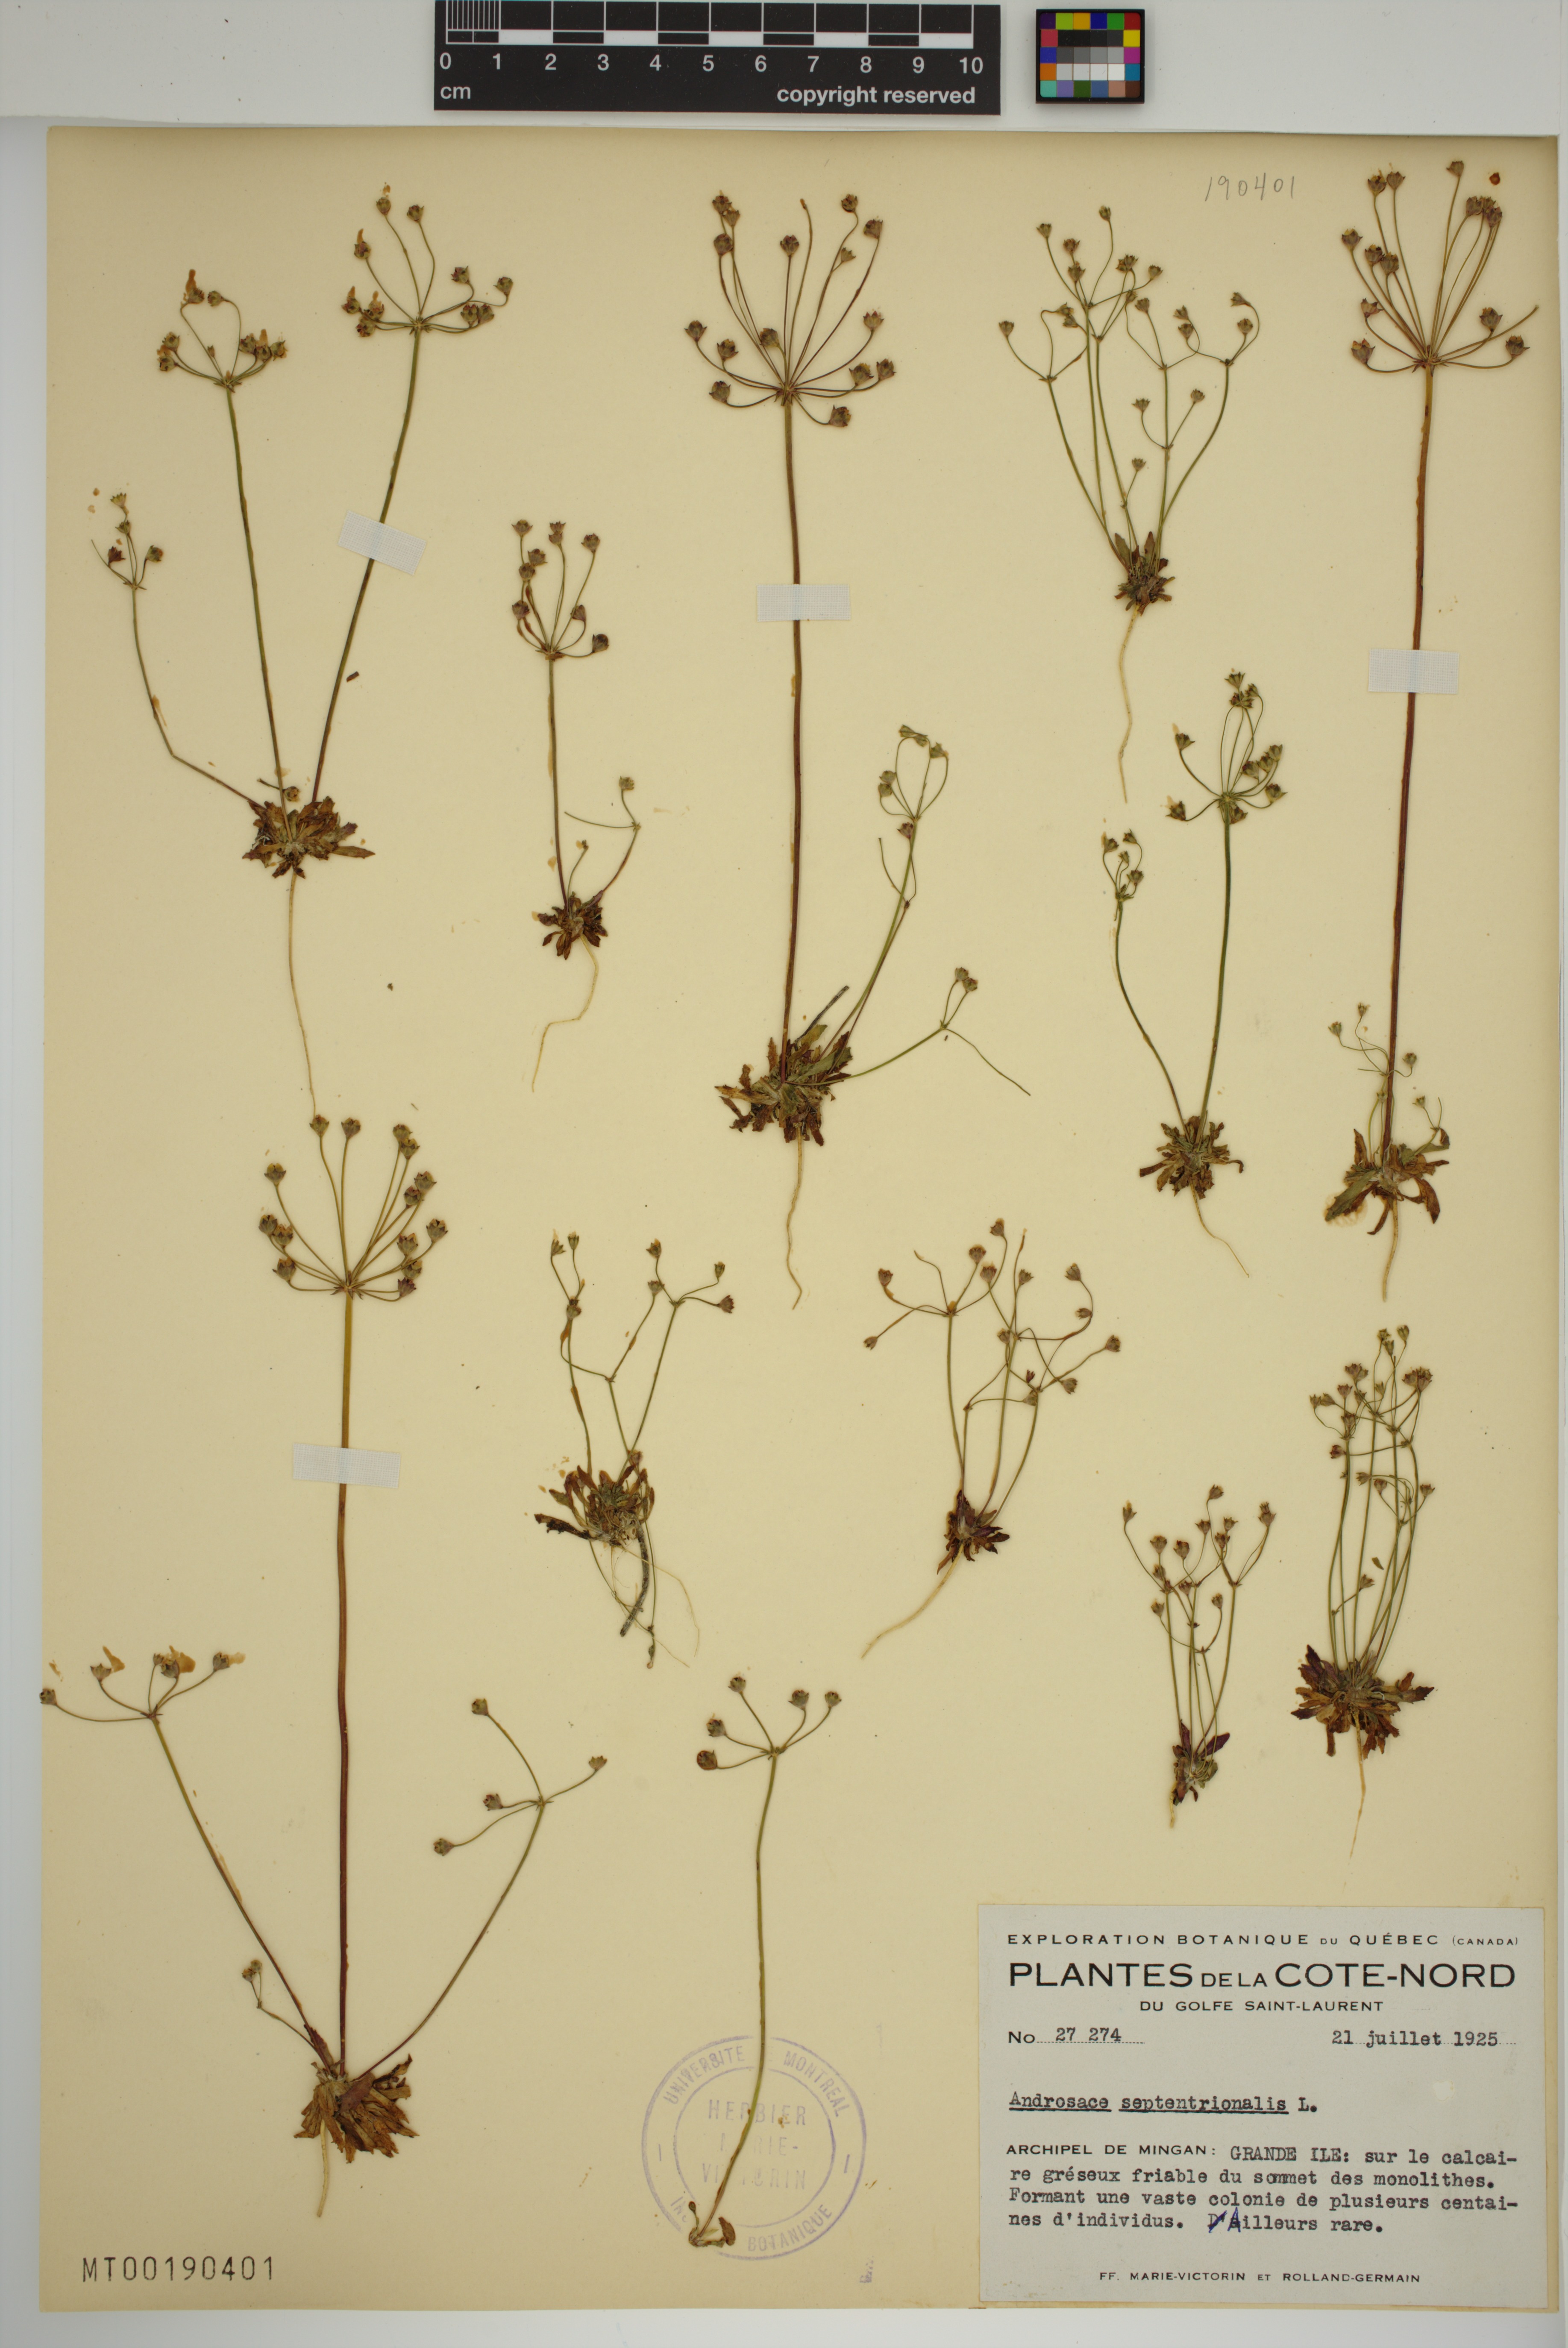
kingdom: Plantae
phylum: Tracheophyta
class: Magnoliopsida
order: Ericales
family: Primulaceae
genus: Androsace
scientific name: Androsace septentrionalis
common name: Hairy northern fairy-candelabra
